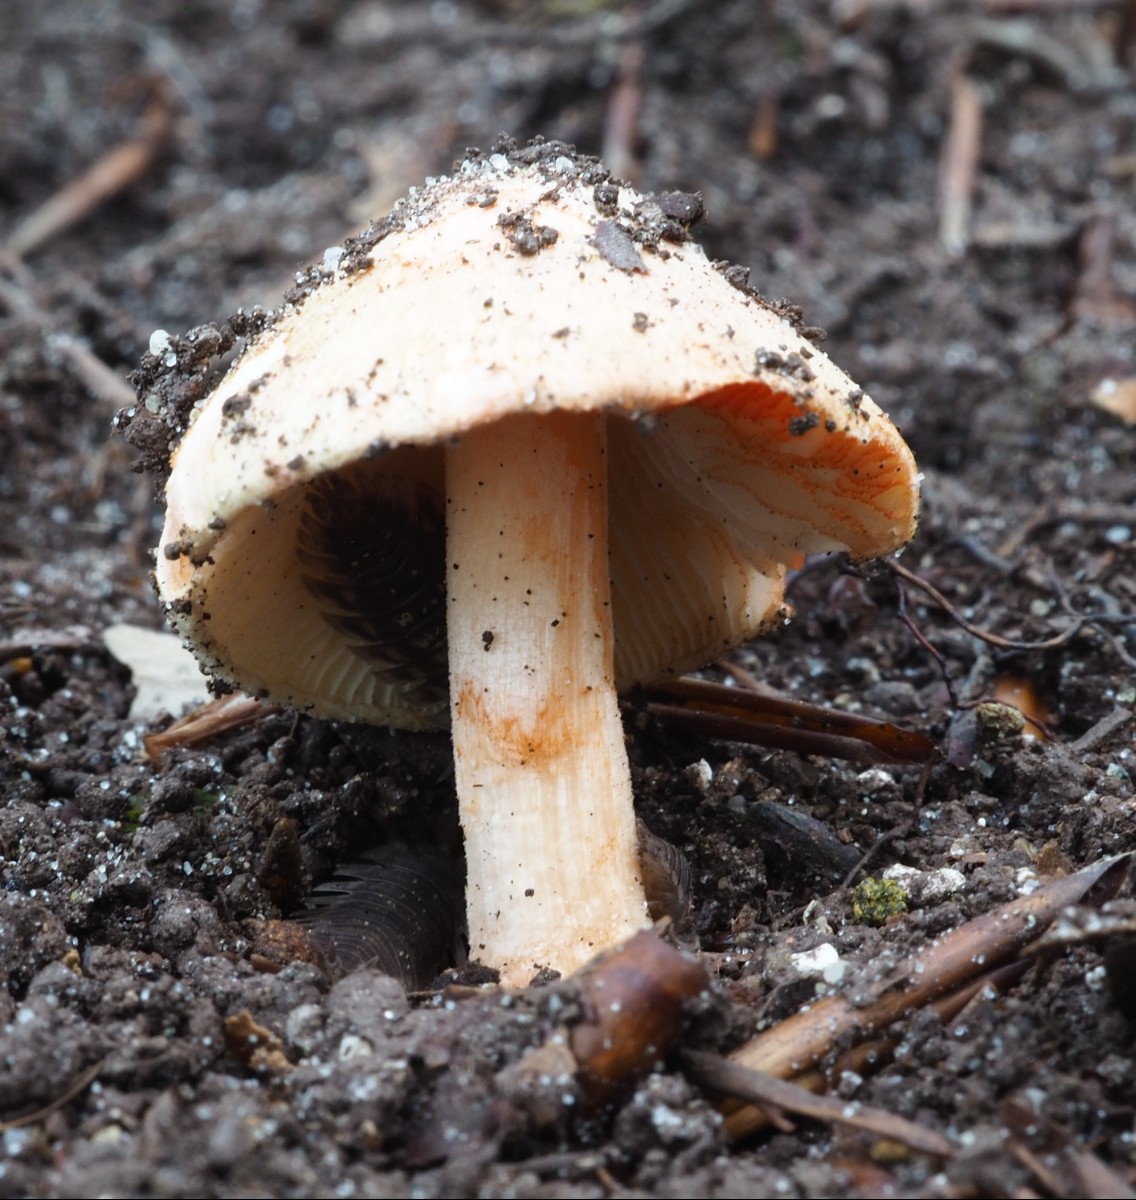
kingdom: Fungi
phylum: Basidiomycota
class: Agaricomycetes
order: Agaricales
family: Inocybaceae
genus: Inocybe
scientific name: Inocybe godeyi
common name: orangerødmende trævlhat
